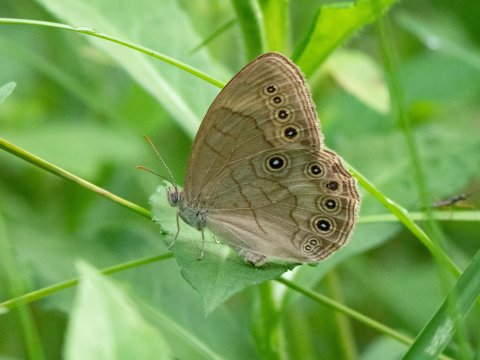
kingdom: Animalia
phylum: Arthropoda
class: Insecta
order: Lepidoptera
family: Nymphalidae
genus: Lethe
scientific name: Lethe eurydice
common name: Appalachian Eyed Brown
